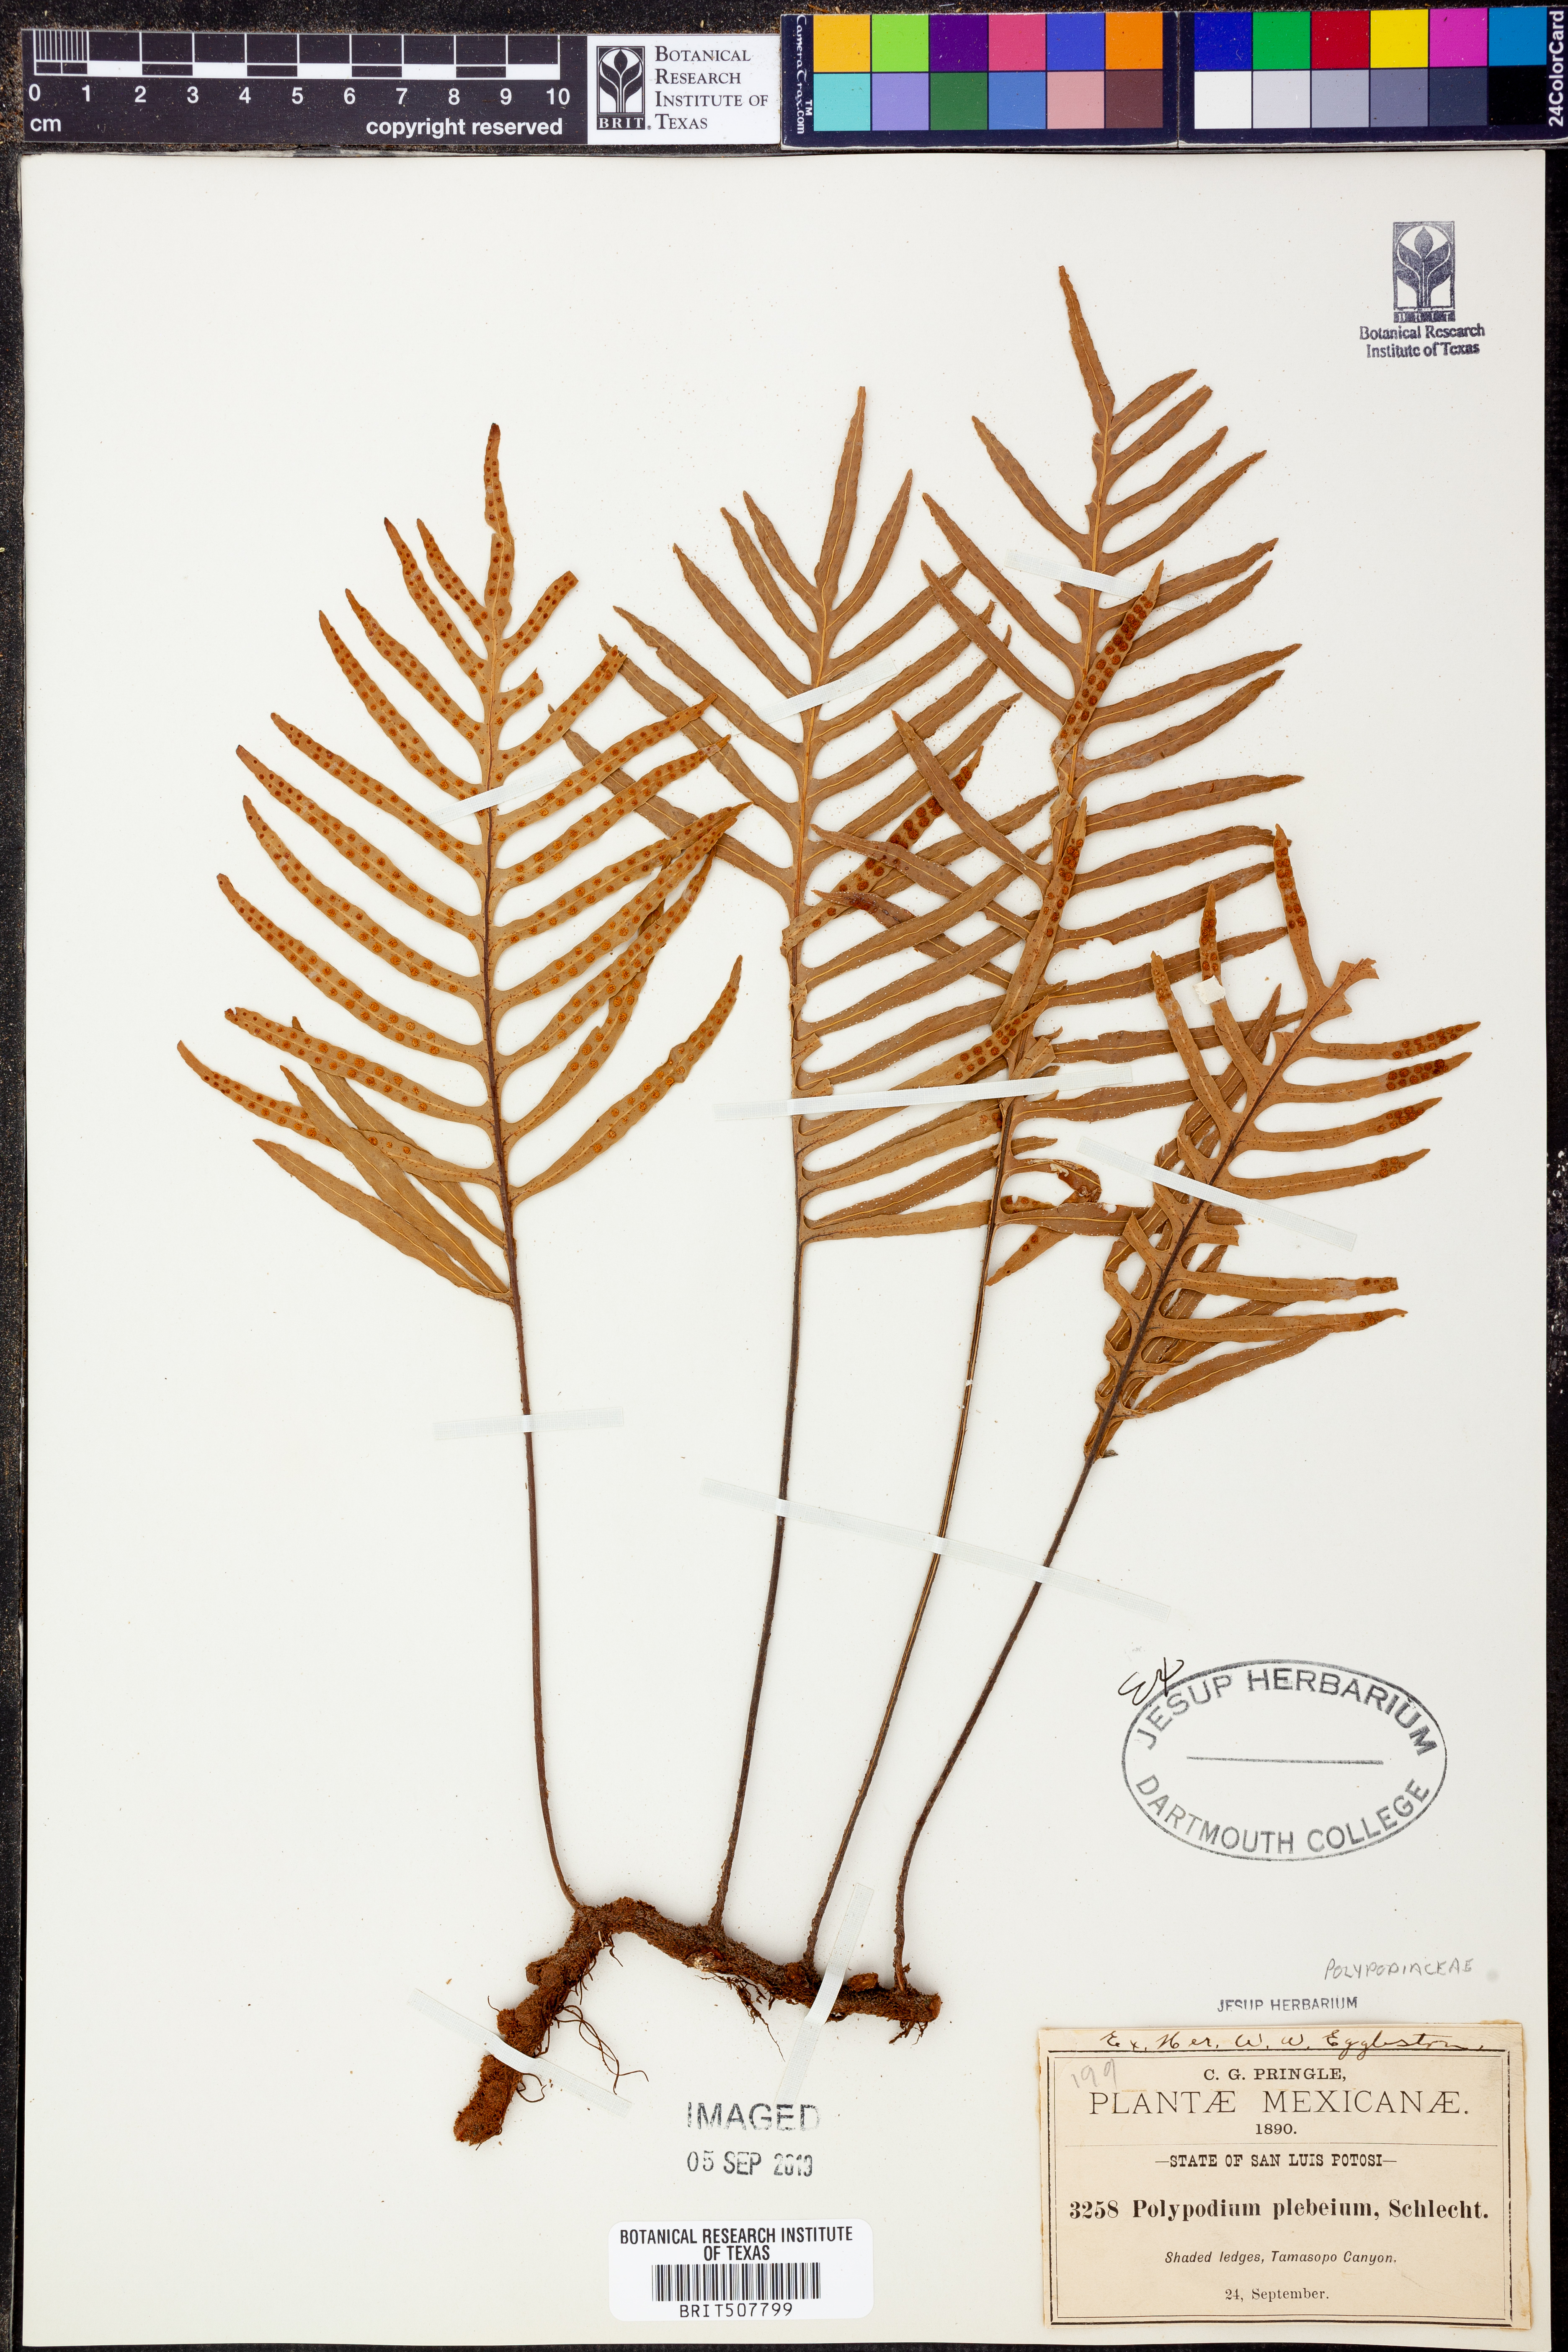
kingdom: Plantae
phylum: Tracheophyta
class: Polypodiopsida
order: Polypodiales
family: Polypodiaceae
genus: Pleopeltis
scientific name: Pleopeltis plebeia
